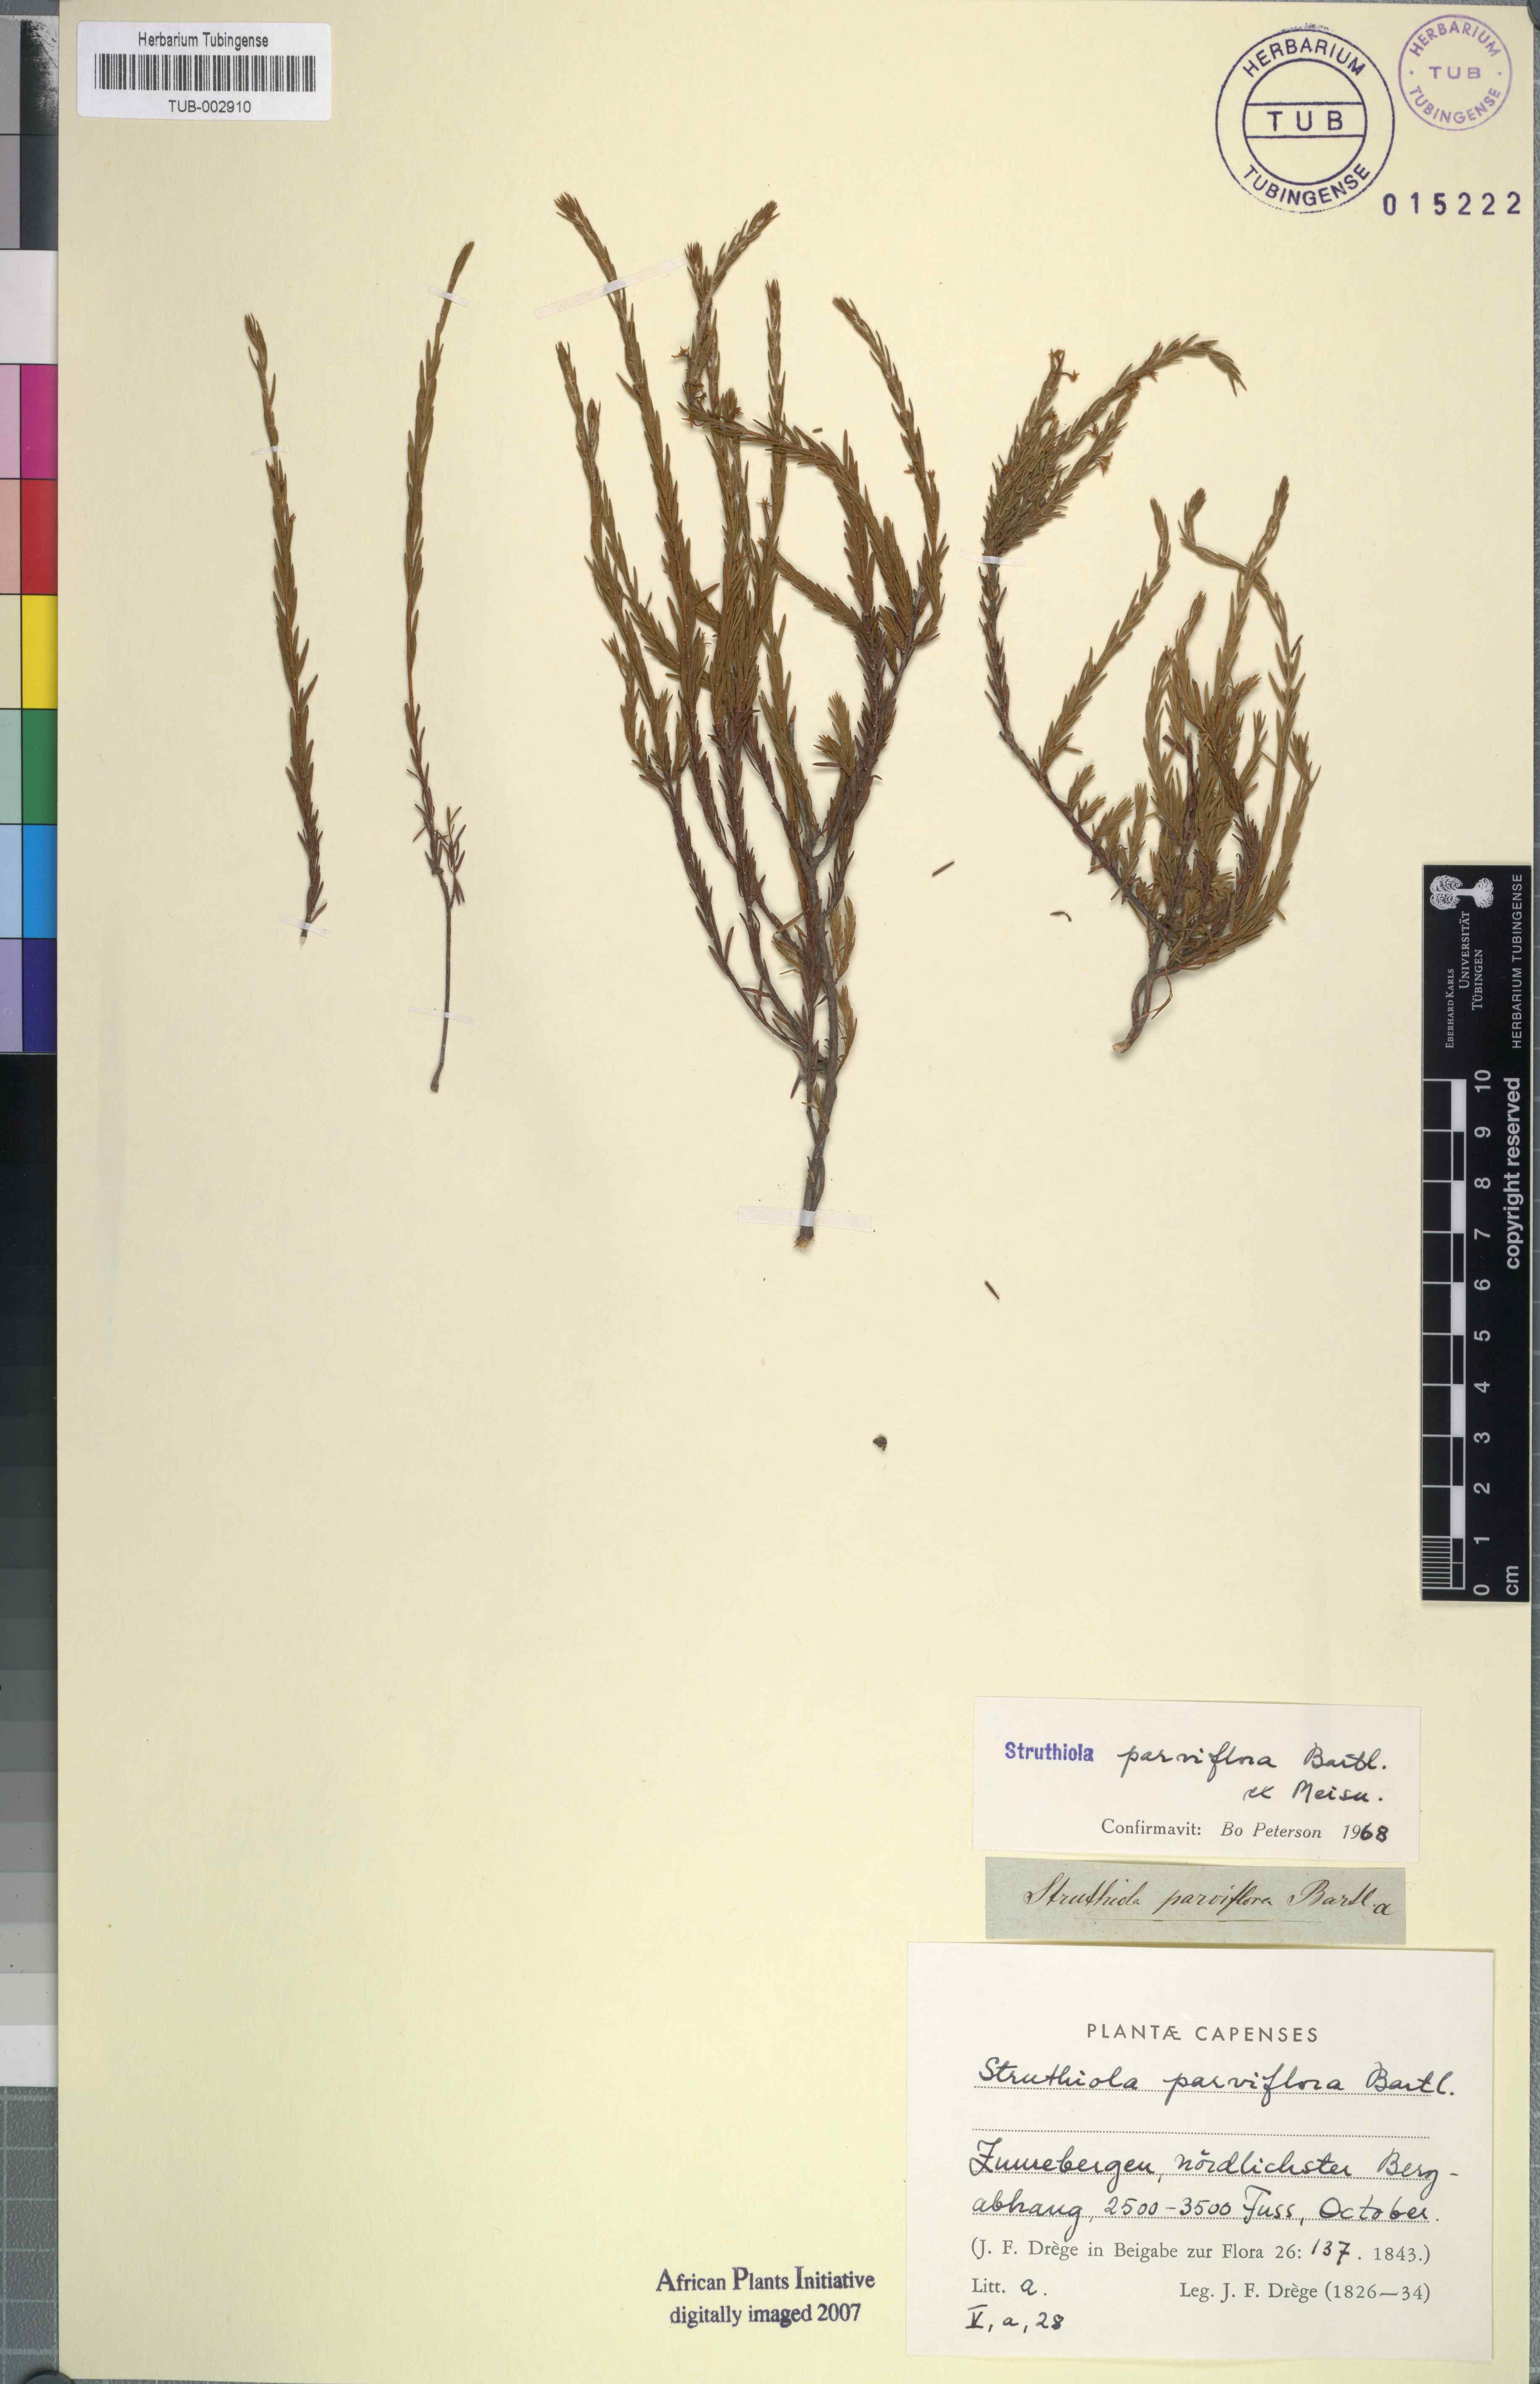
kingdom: Plantae
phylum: Tracheophyta
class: Magnoliopsida
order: Malvales
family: Thymelaeaceae
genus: Struthiola
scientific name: Struthiola parviflora
